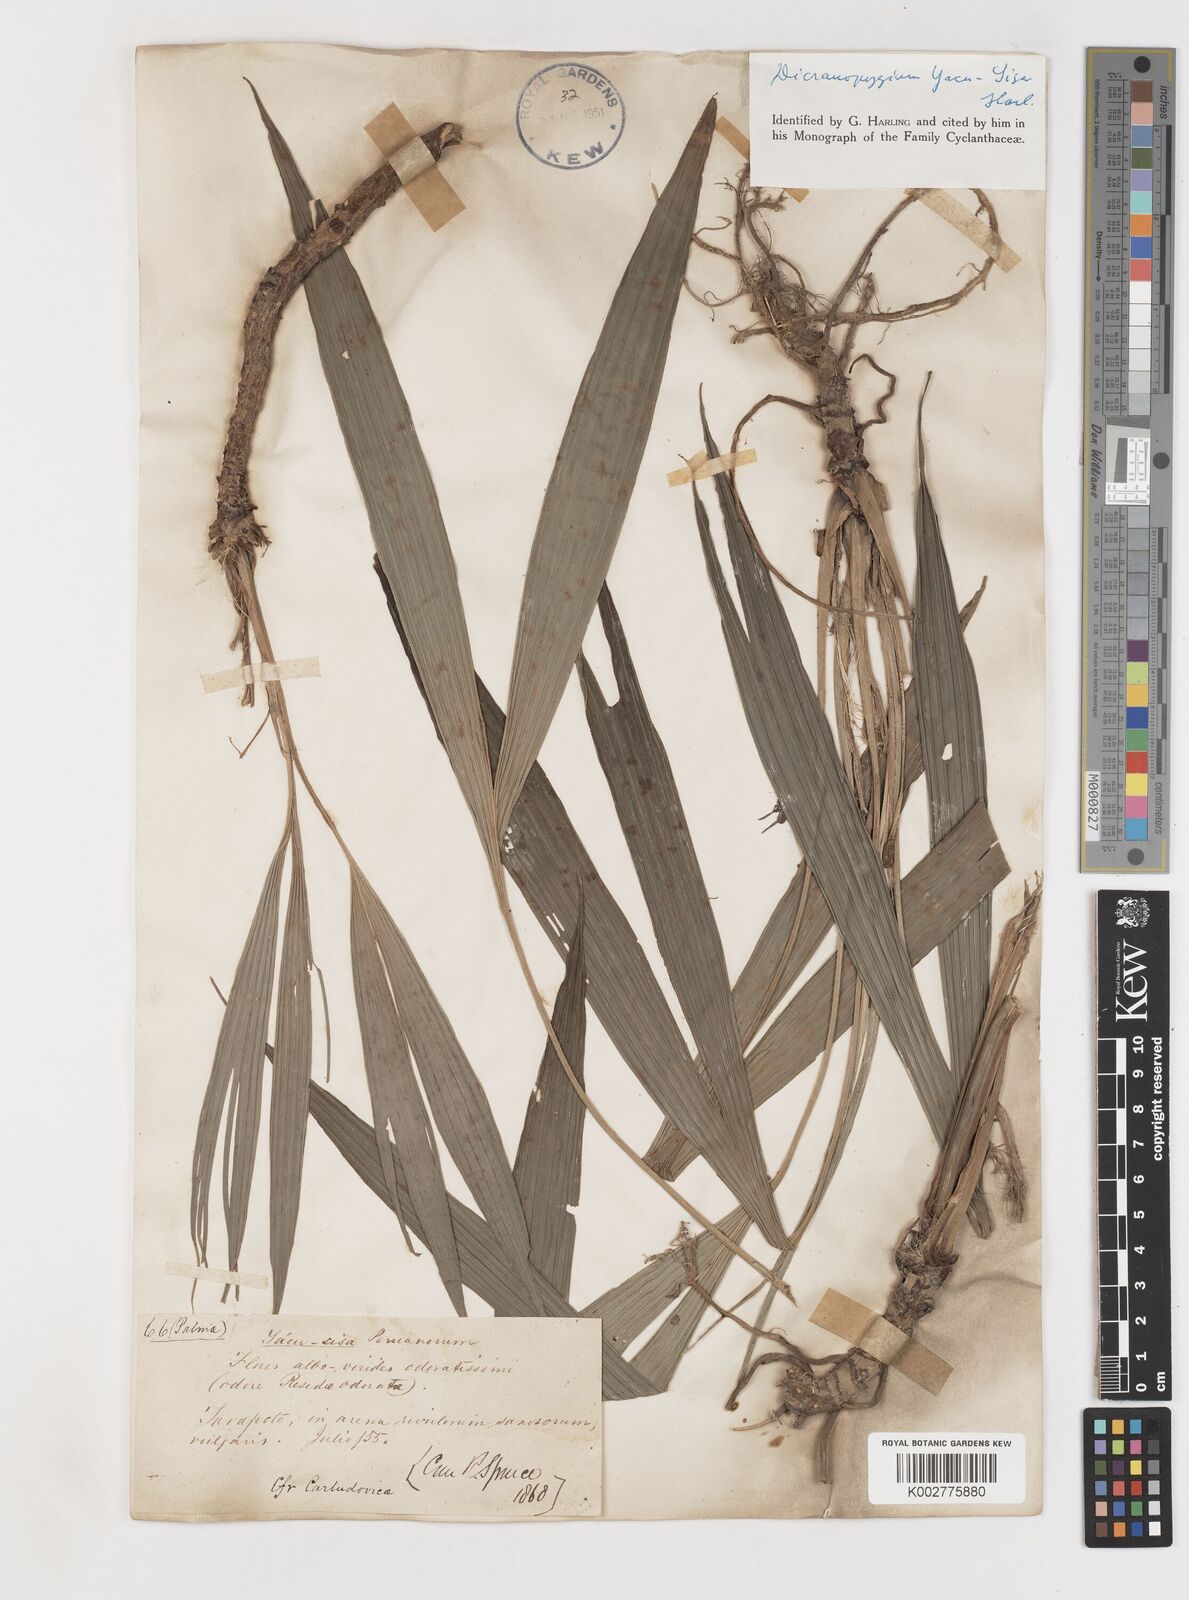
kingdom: Plantae
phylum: Tracheophyta
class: Liliopsida
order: Pandanales
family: Cyclanthaceae
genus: Dicranopygium
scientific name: Dicranopygium yacu-sisa
